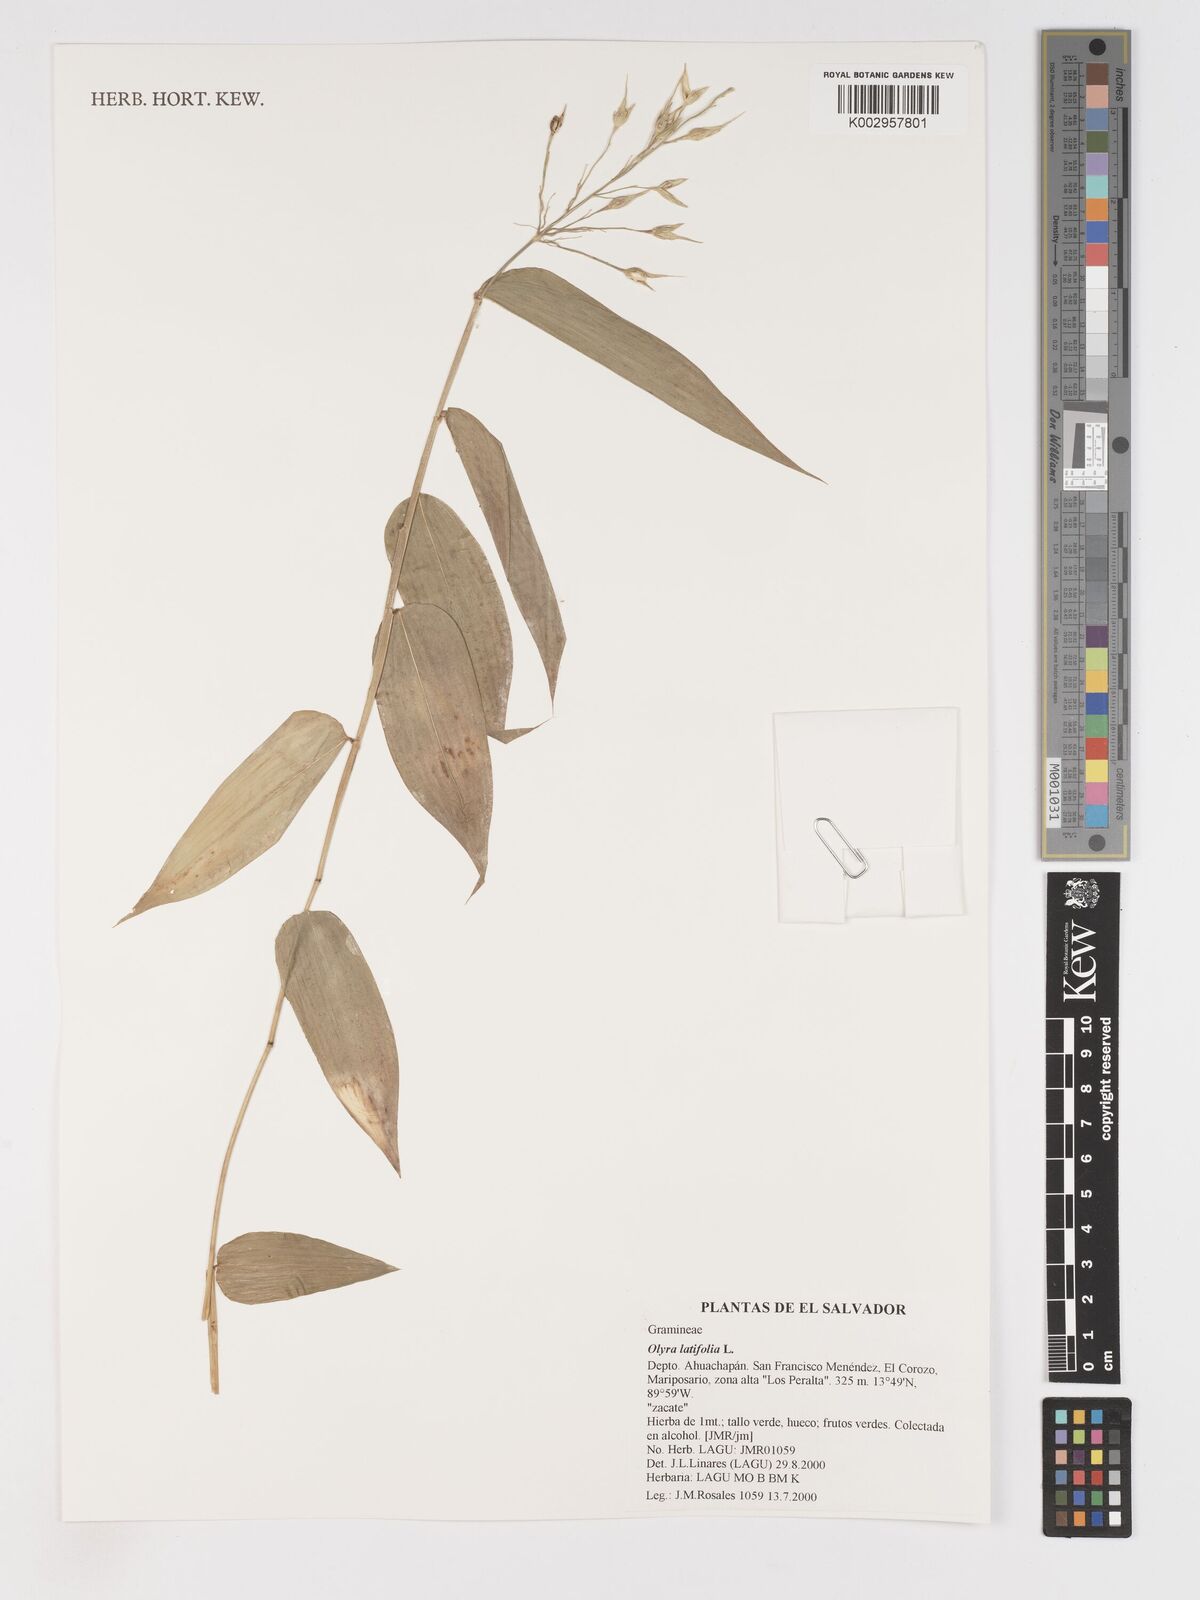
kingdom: Plantae
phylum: Tracheophyta
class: Liliopsida
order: Poales
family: Poaceae
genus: Olyra
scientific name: Olyra latifolia
